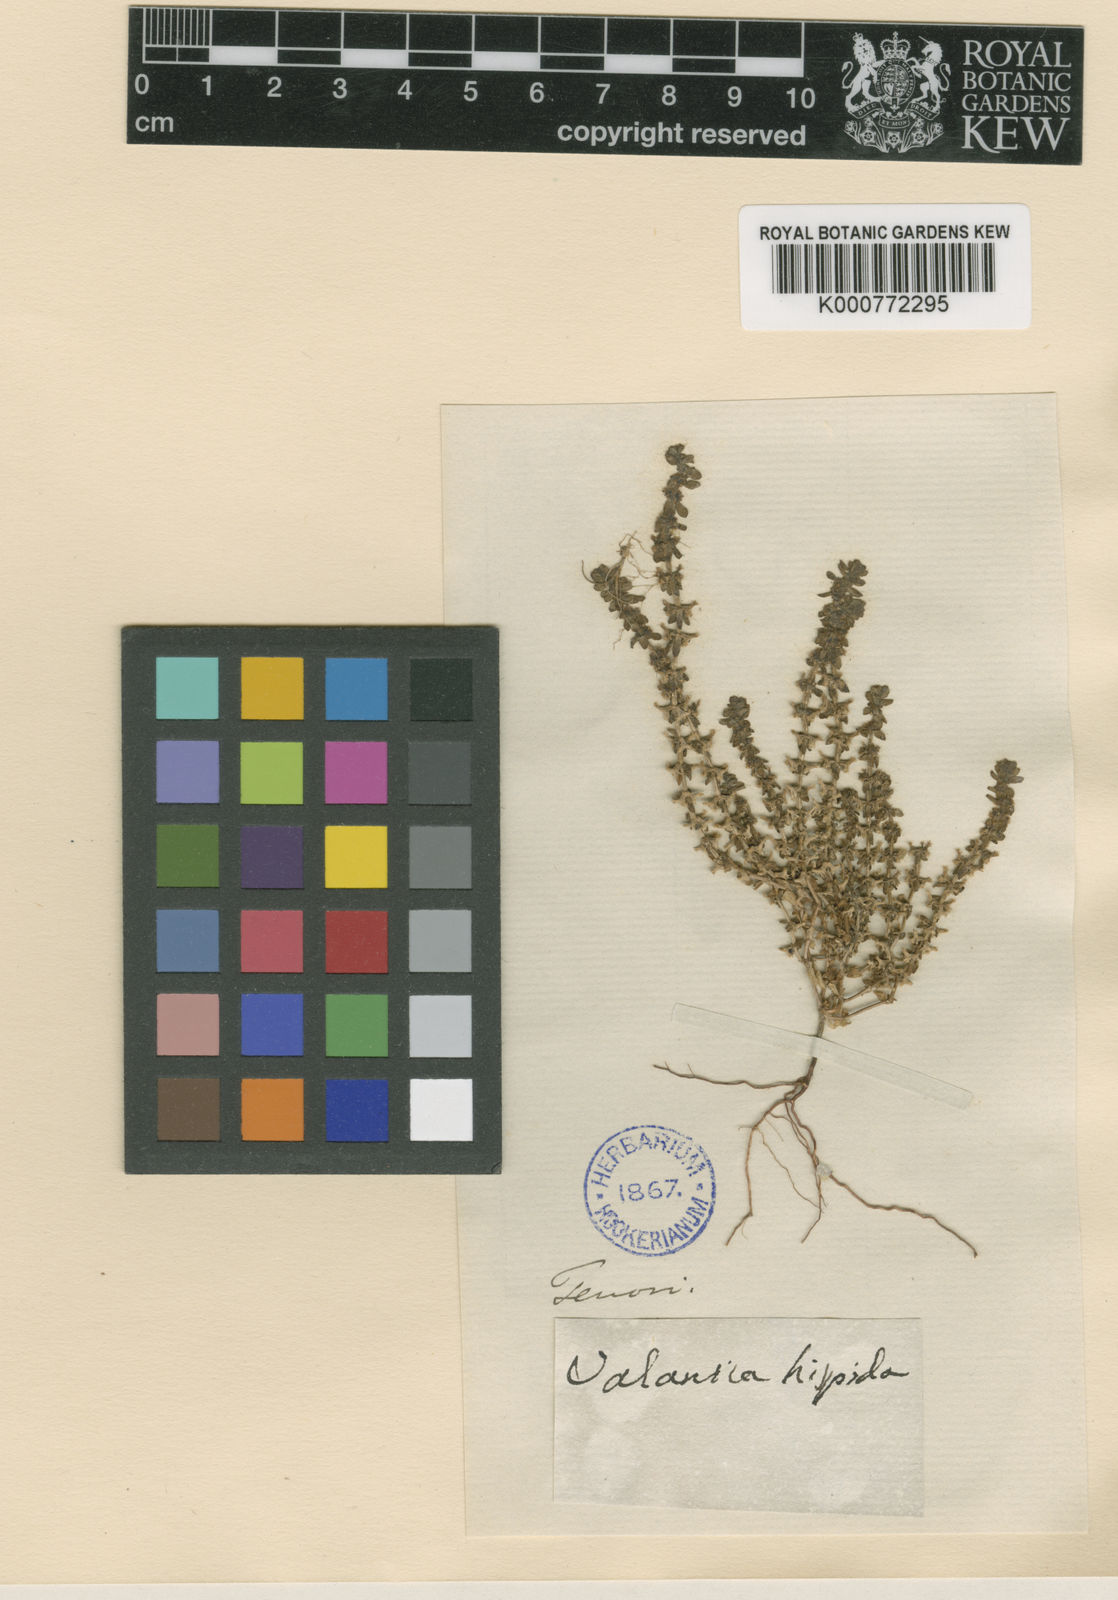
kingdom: Plantae
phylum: Tracheophyta
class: Magnoliopsida
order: Gentianales
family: Rubiaceae
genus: Valantia
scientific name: Valantia muralis
